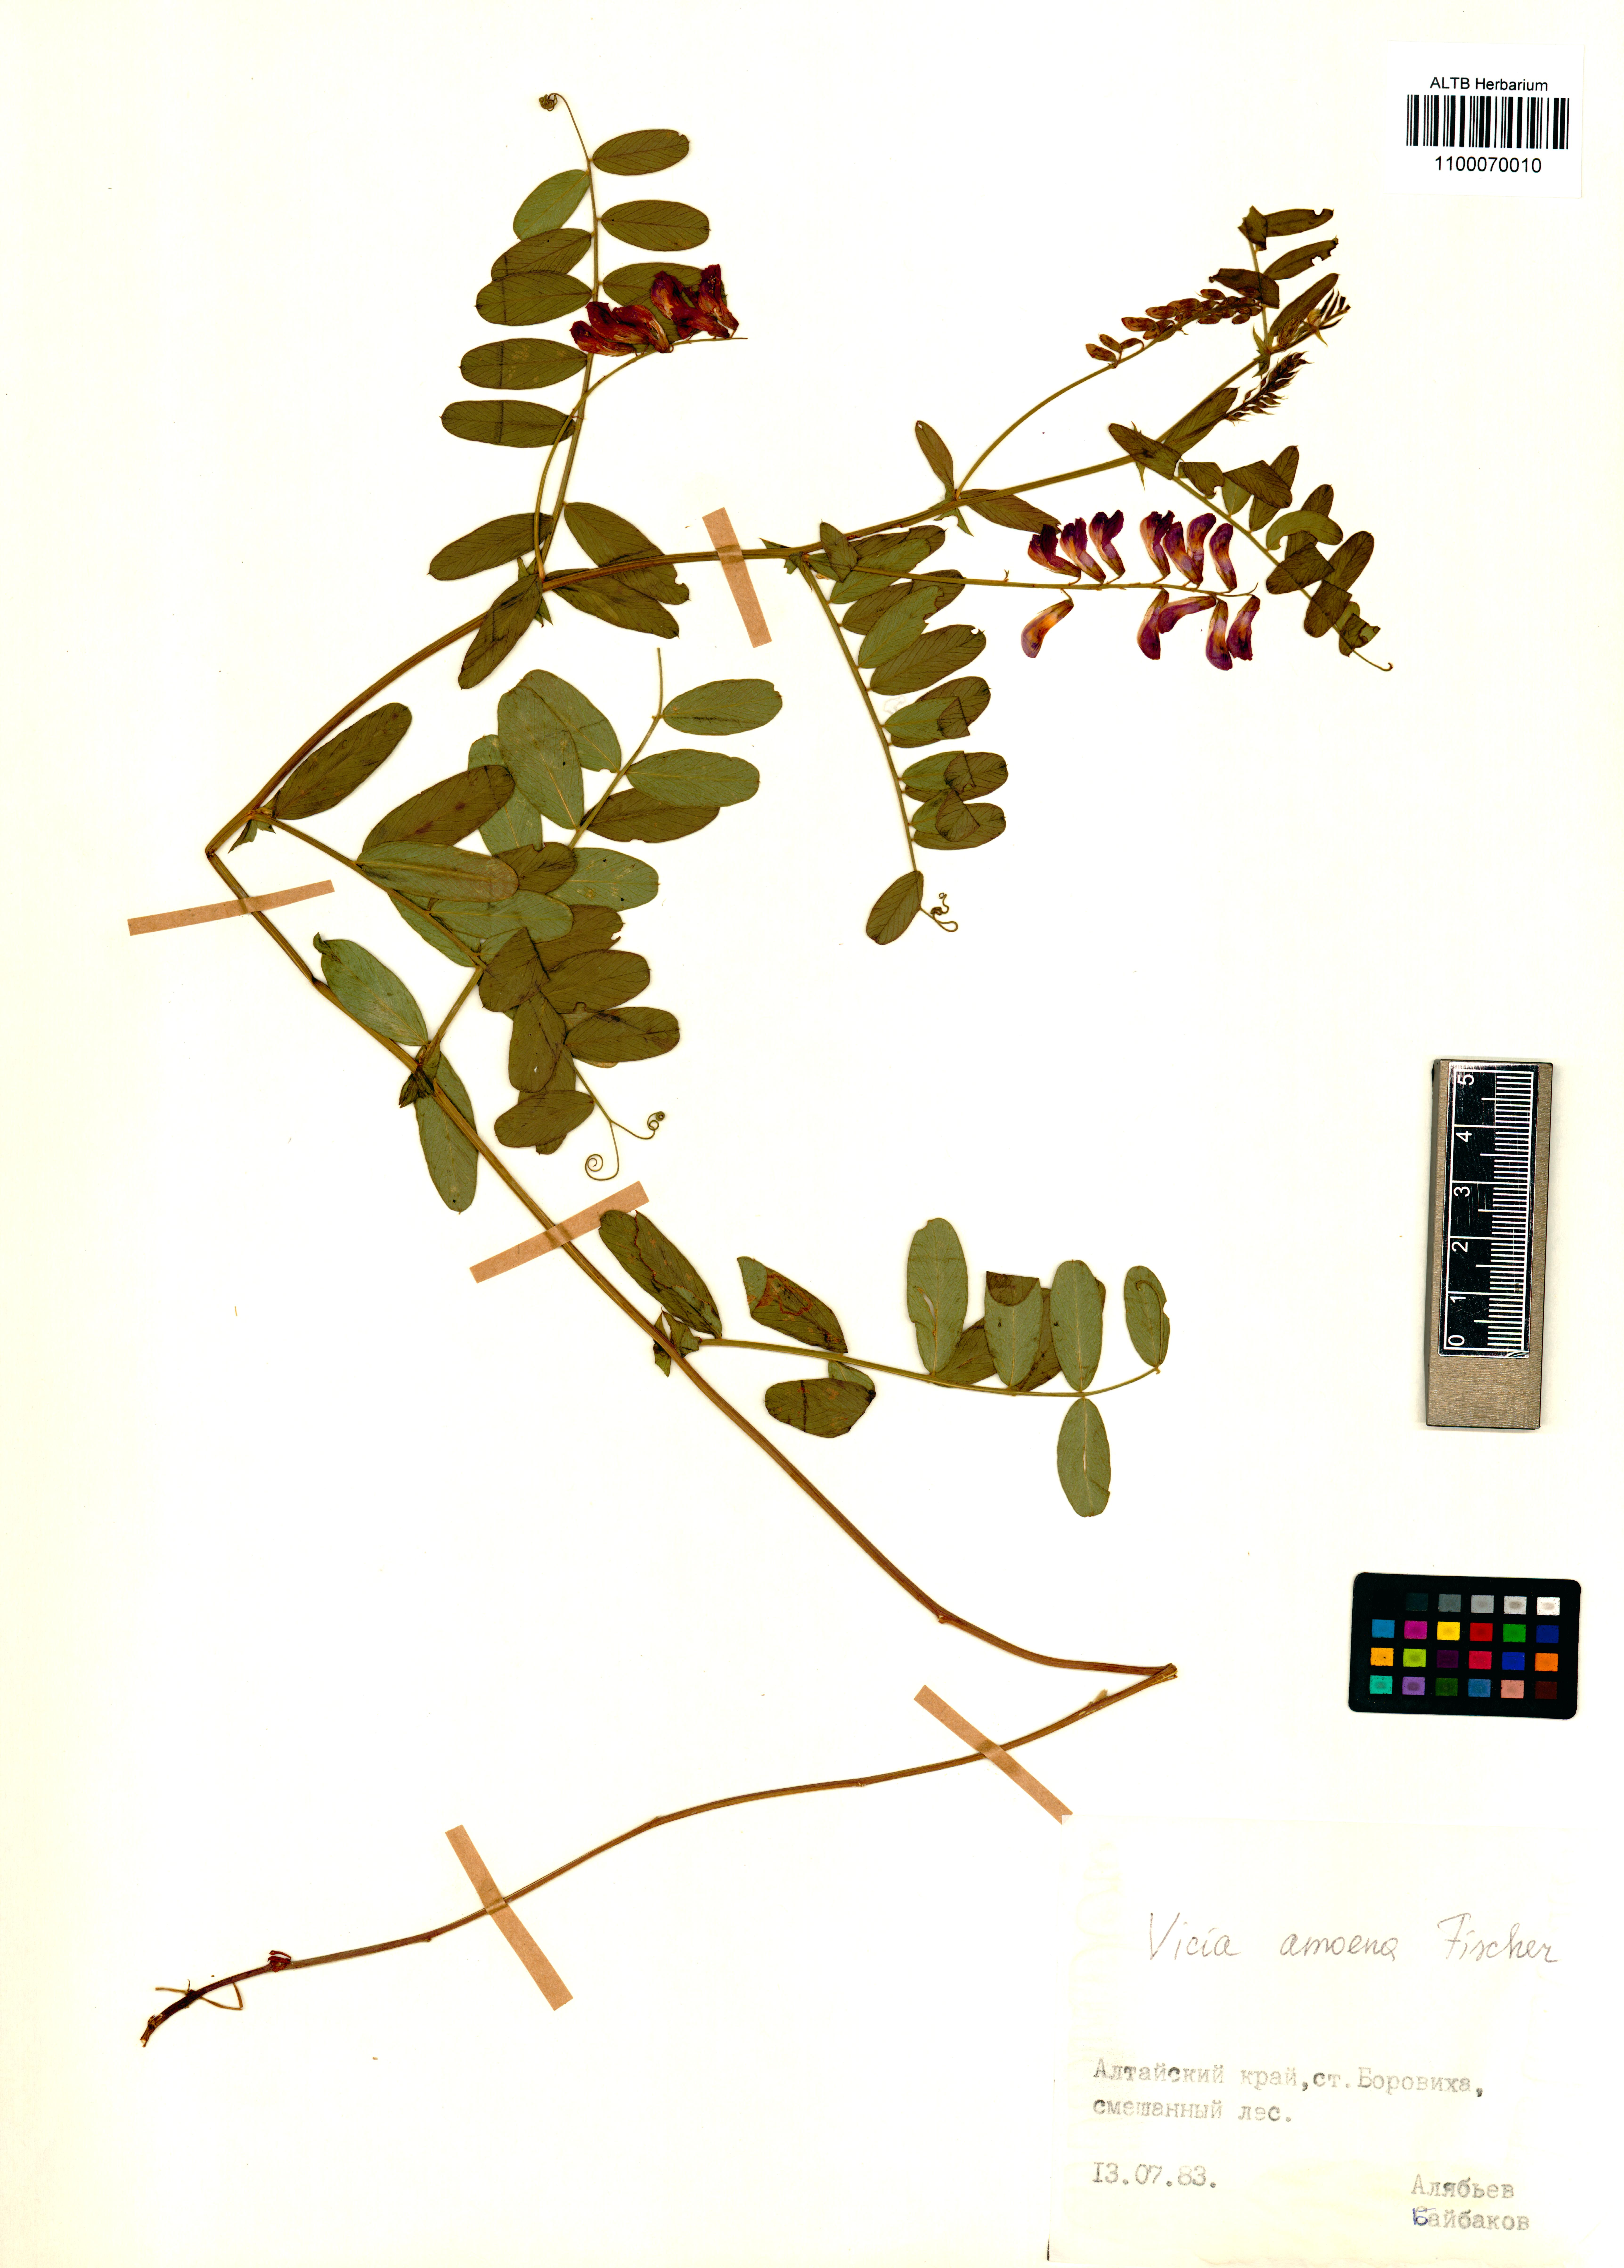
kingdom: Plantae
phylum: Tracheophyta
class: Magnoliopsida
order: Fabales
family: Fabaceae
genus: Vicia
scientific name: Vicia amoena
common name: Cheder ebs
